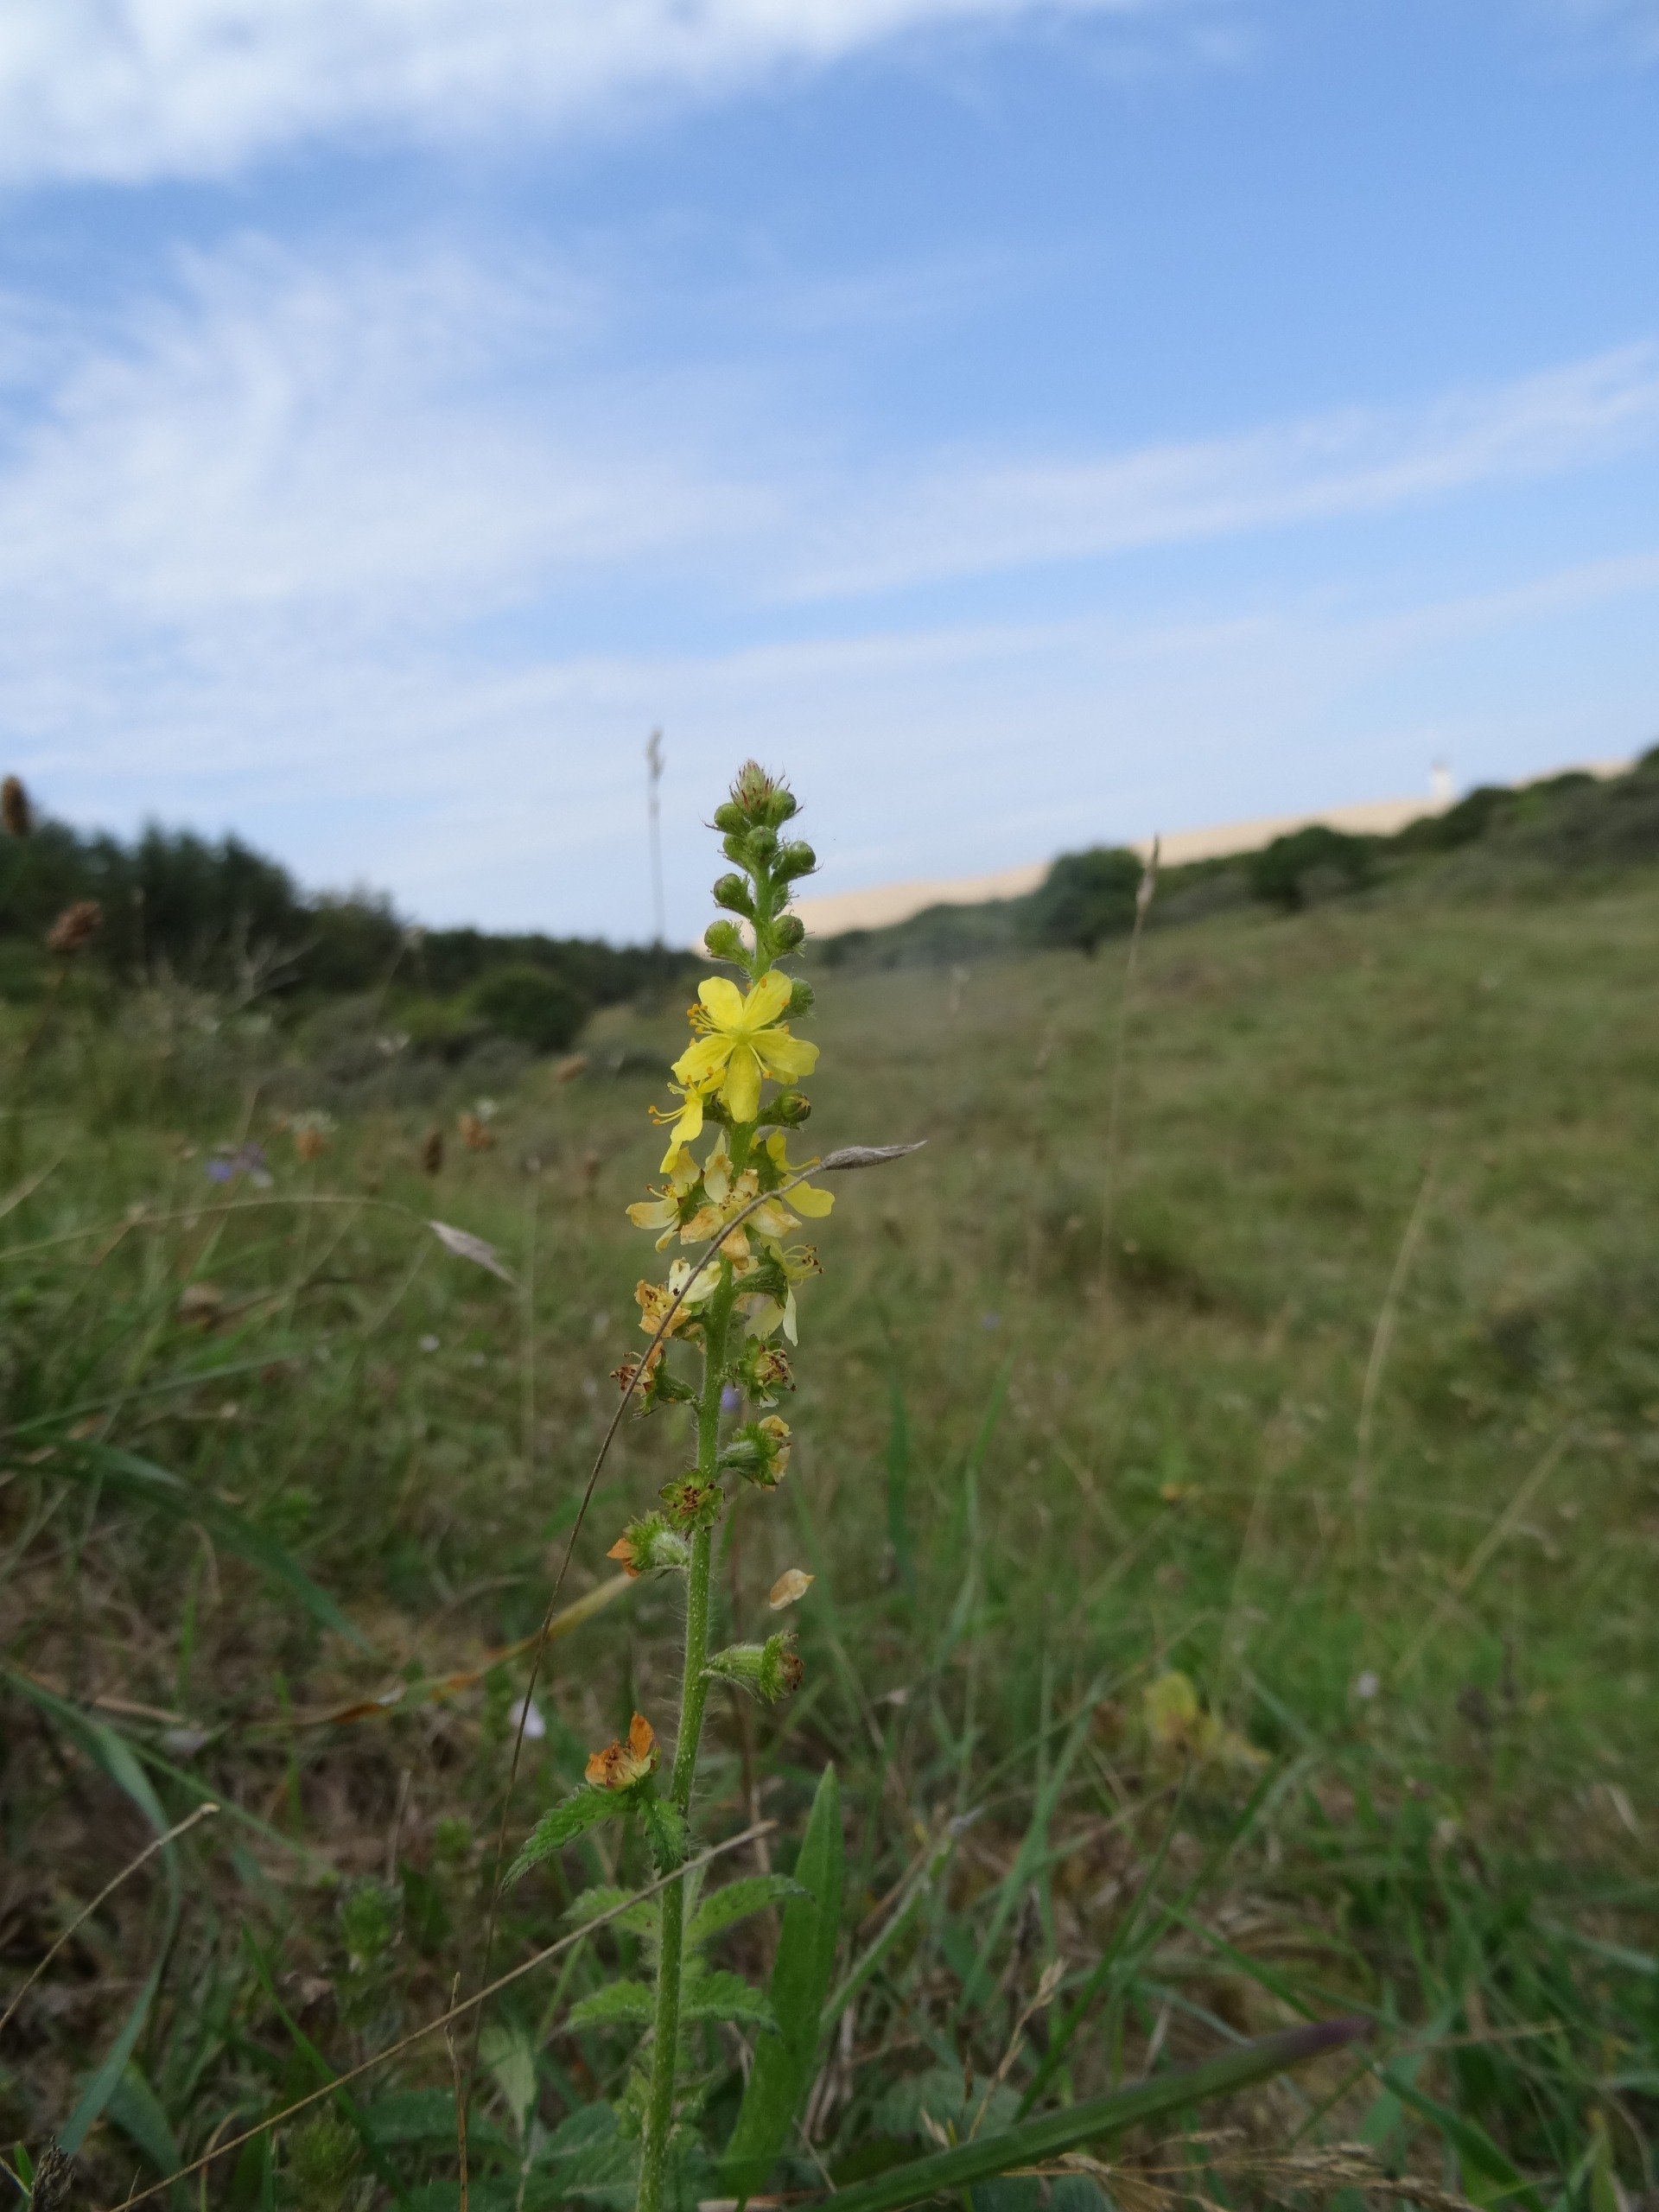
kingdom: Plantae
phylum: Tracheophyta
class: Magnoliopsida
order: Rosales
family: Rosaceae
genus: Agrimonia
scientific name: Agrimonia eupatoria
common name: Almindelig agermåne
